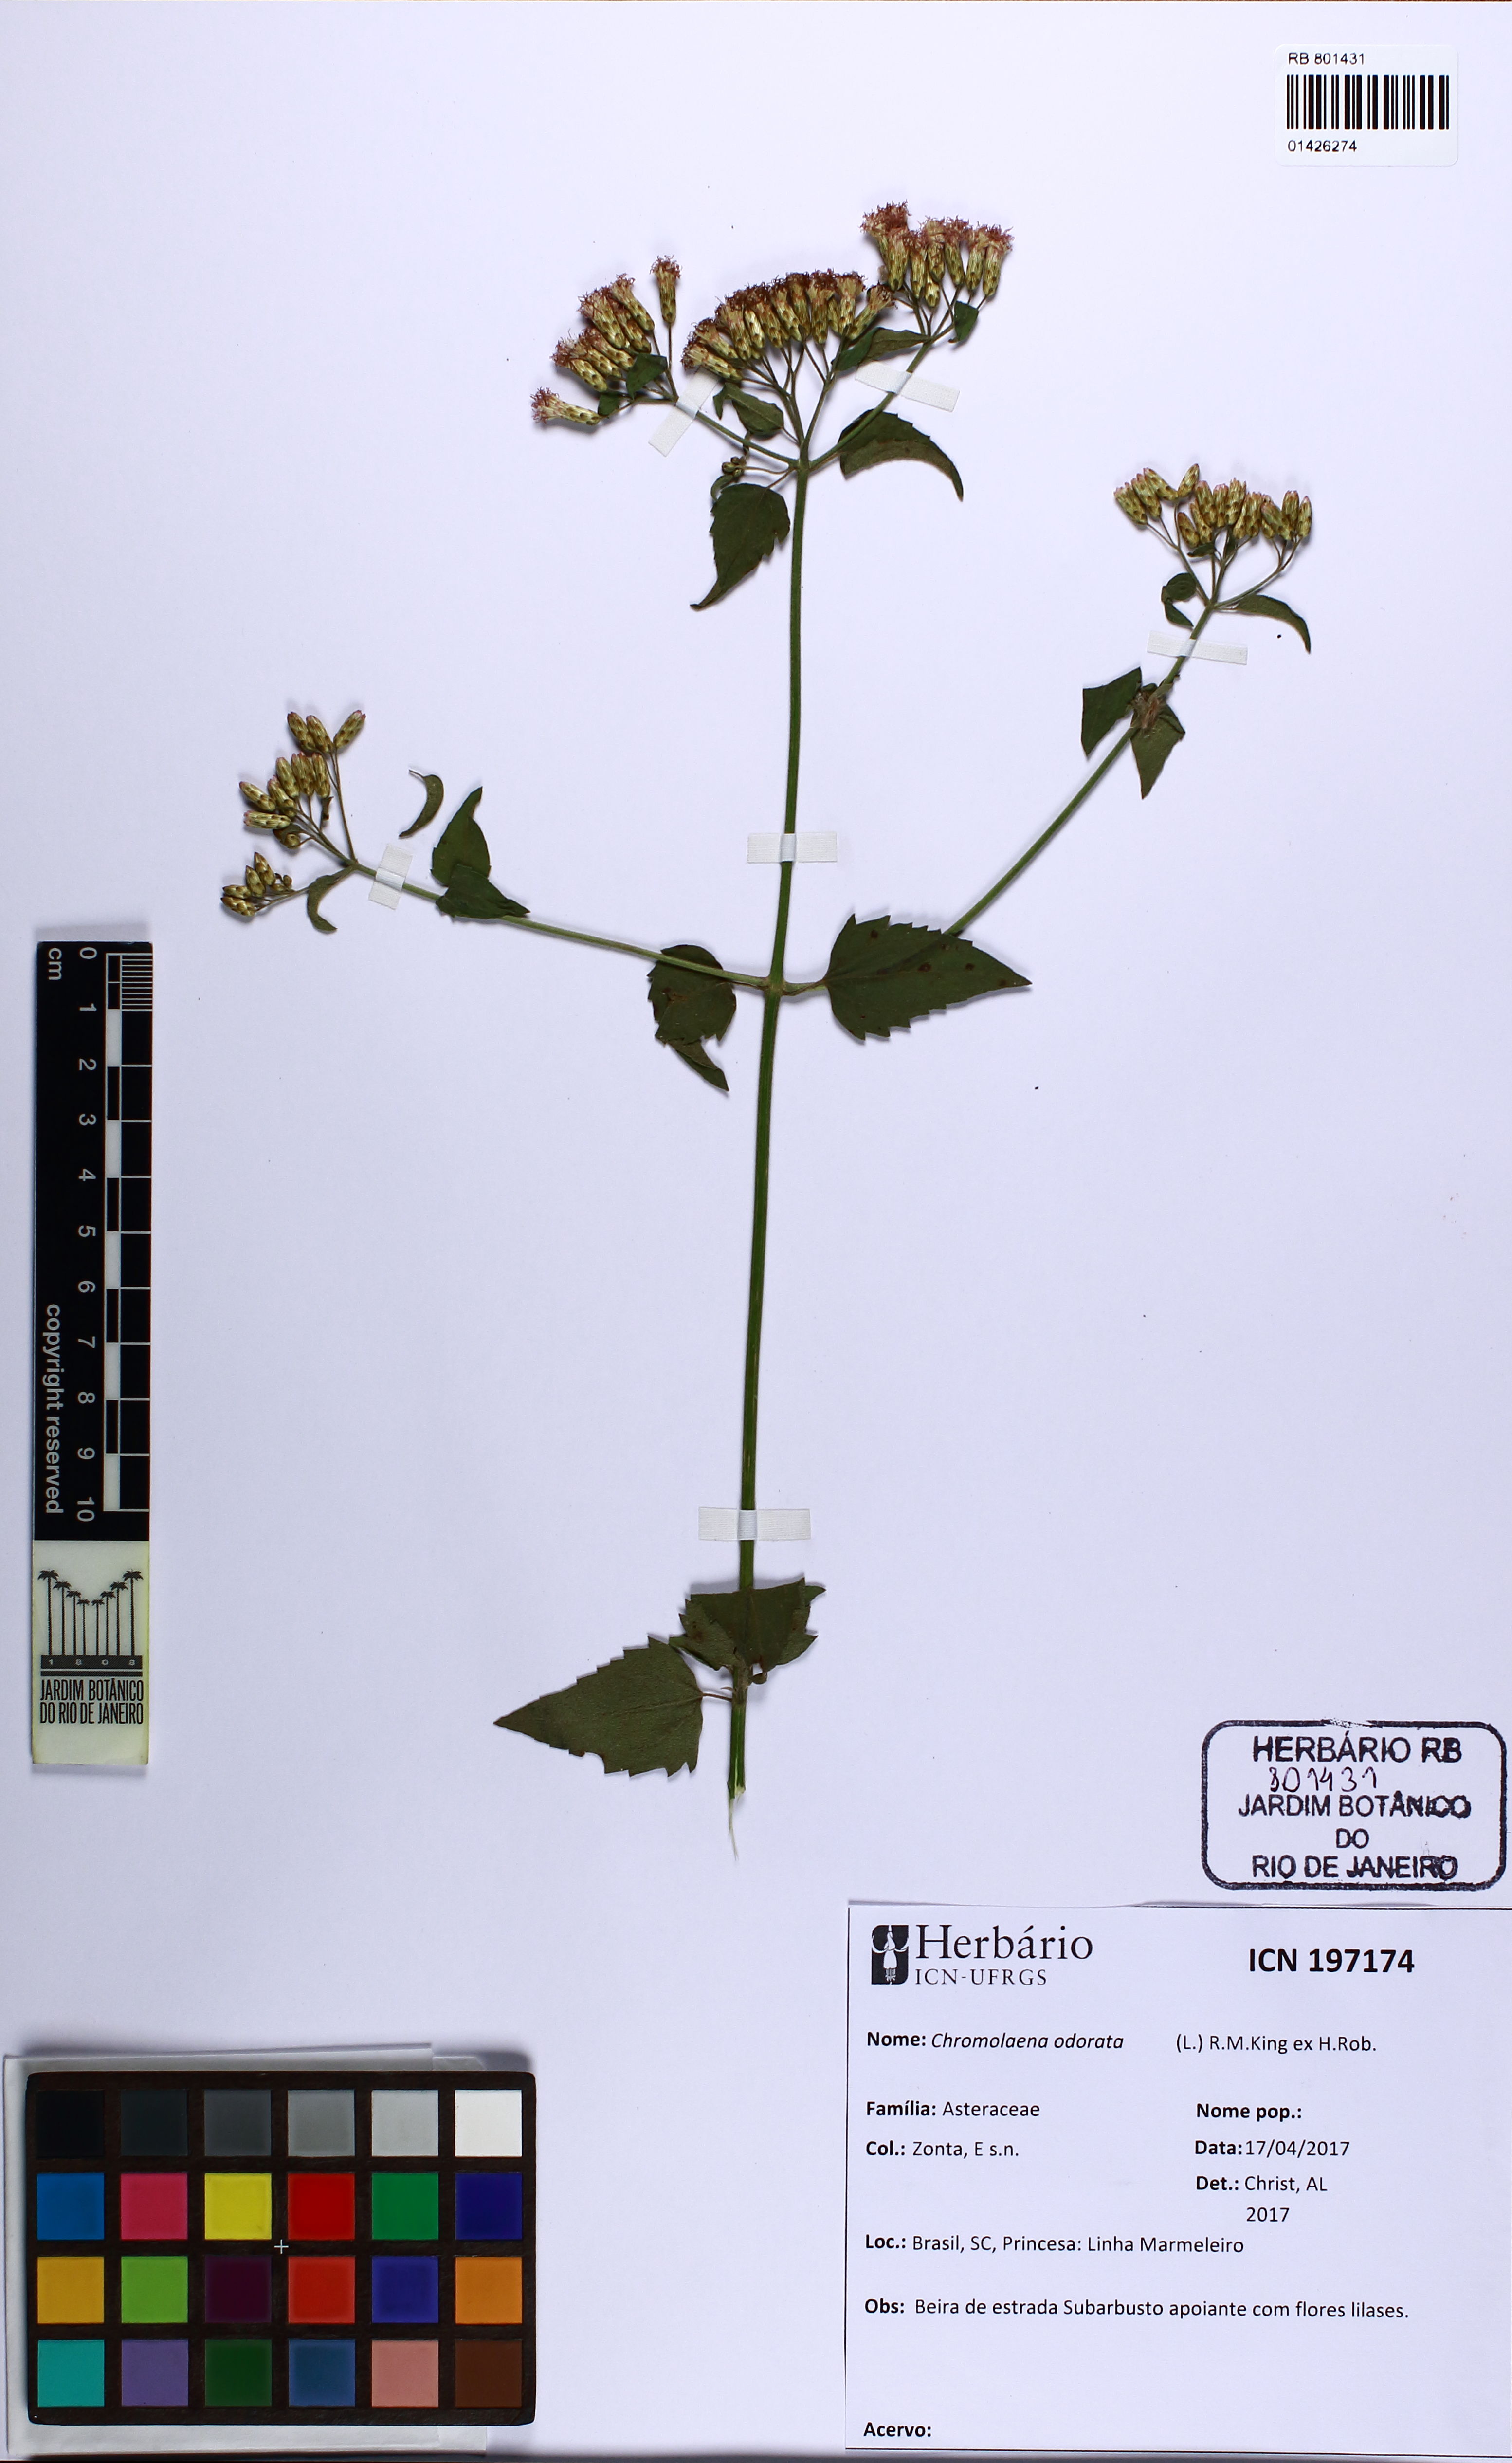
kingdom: Plantae
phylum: Tracheophyta
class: Magnoliopsida
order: Asterales
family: Asteraceae
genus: Chromolaena
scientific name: Chromolaena odorata
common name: Siamweed
